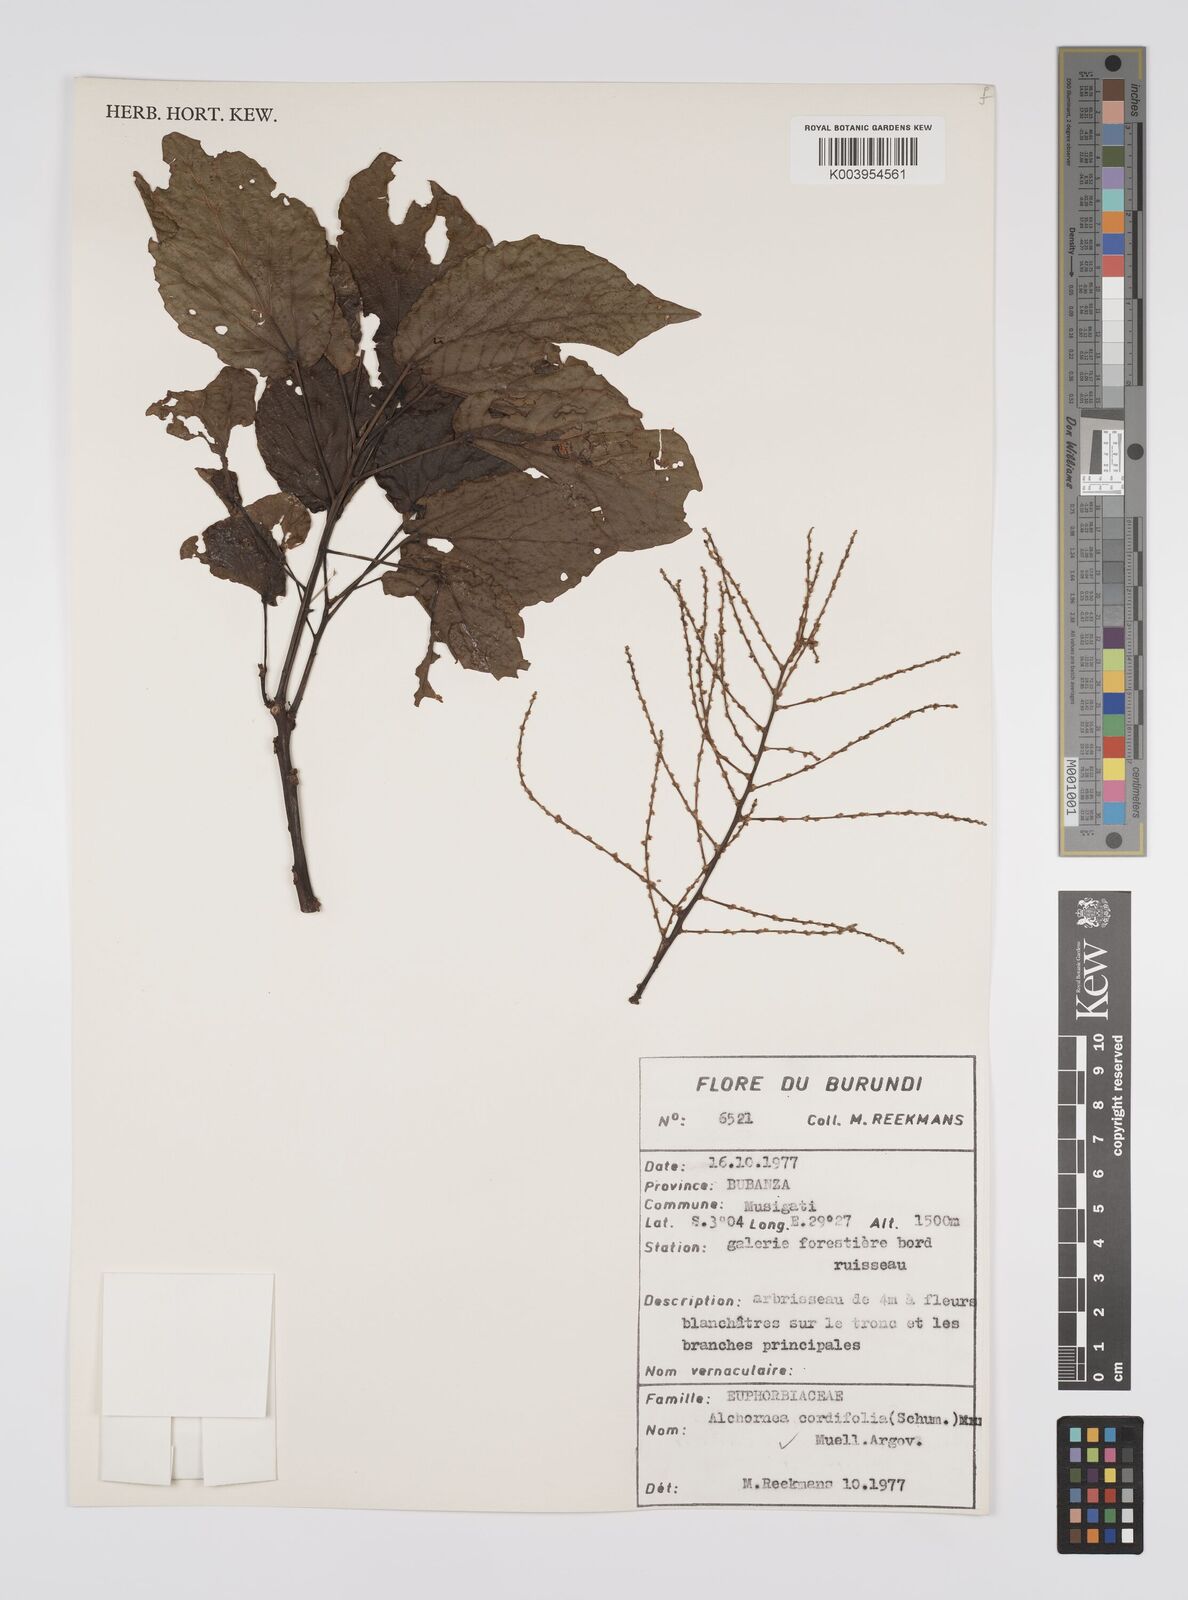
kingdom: Plantae
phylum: Tracheophyta
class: Magnoliopsida
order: Malpighiales
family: Euphorbiaceae
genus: Alchornea
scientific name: Alchornea cordifolia
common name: Christmasbush
